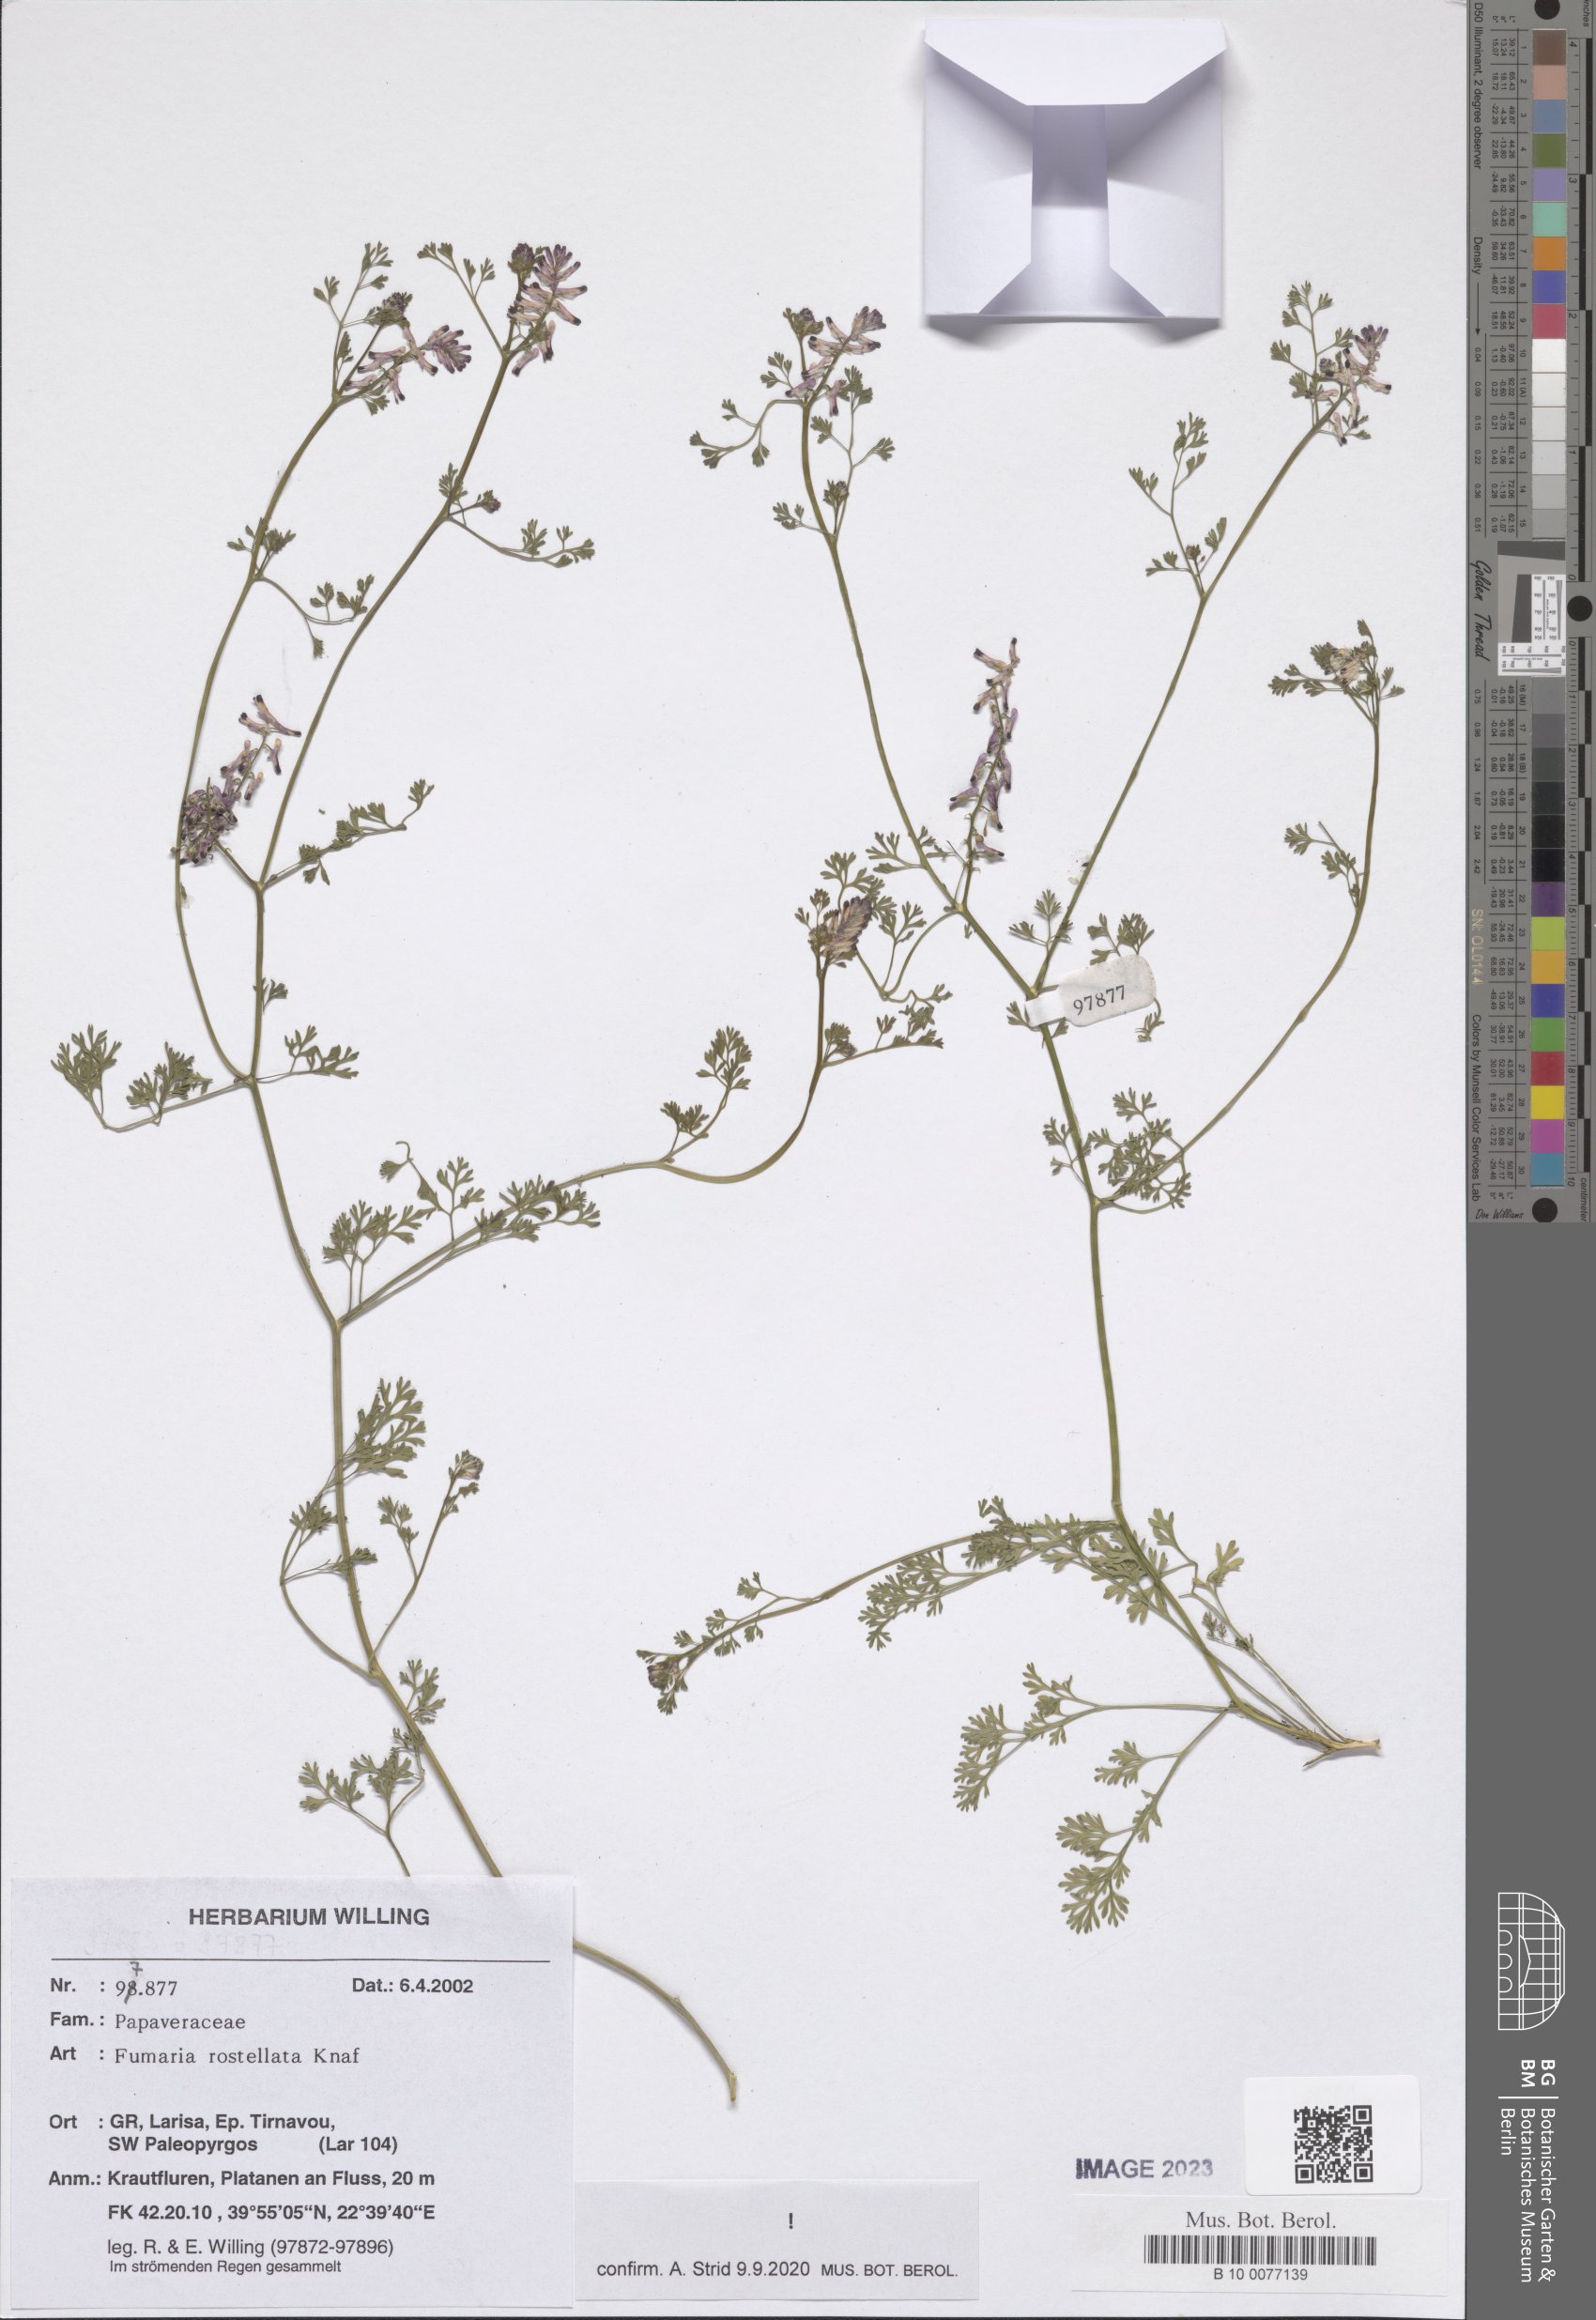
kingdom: Plantae
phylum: Tracheophyta
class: Magnoliopsida
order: Ranunculales
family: Papaveraceae
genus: Fumaria
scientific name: Fumaria rostellata
